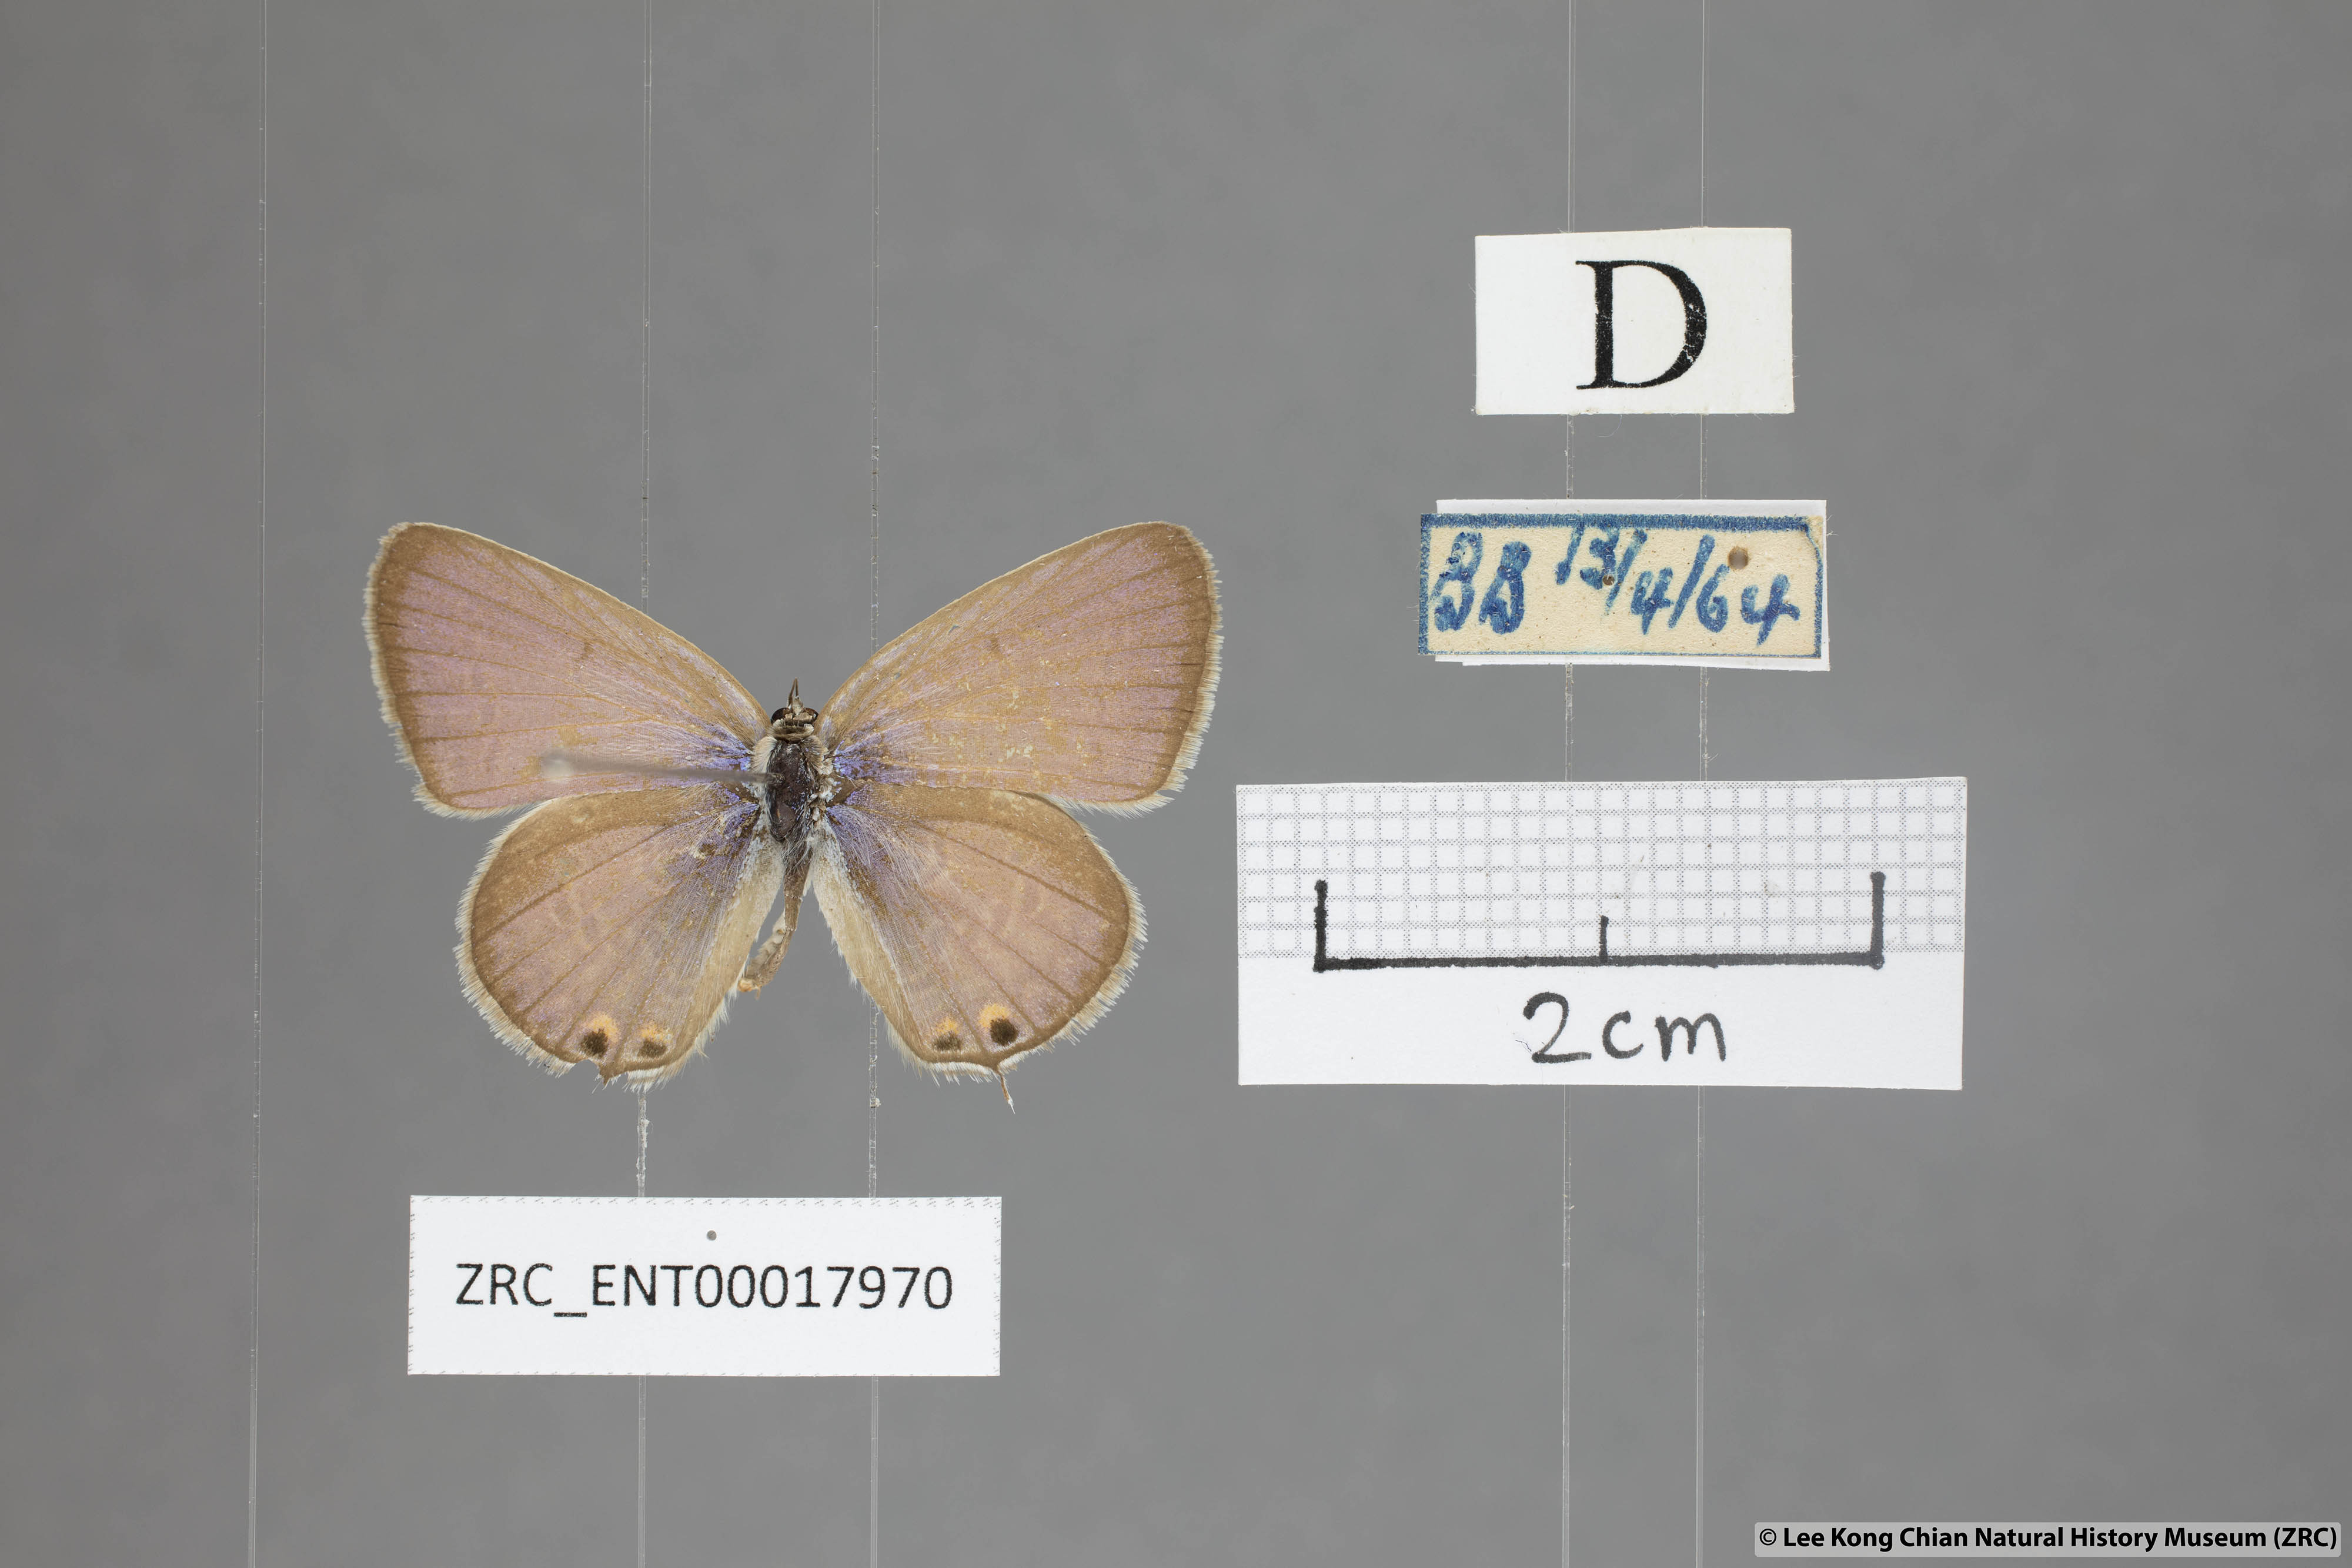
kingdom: Animalia
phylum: Arthropoda
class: Insecta
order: Lepidoptera
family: Lycaenidae
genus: Euchrysops
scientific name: Euchrysops cnejus
